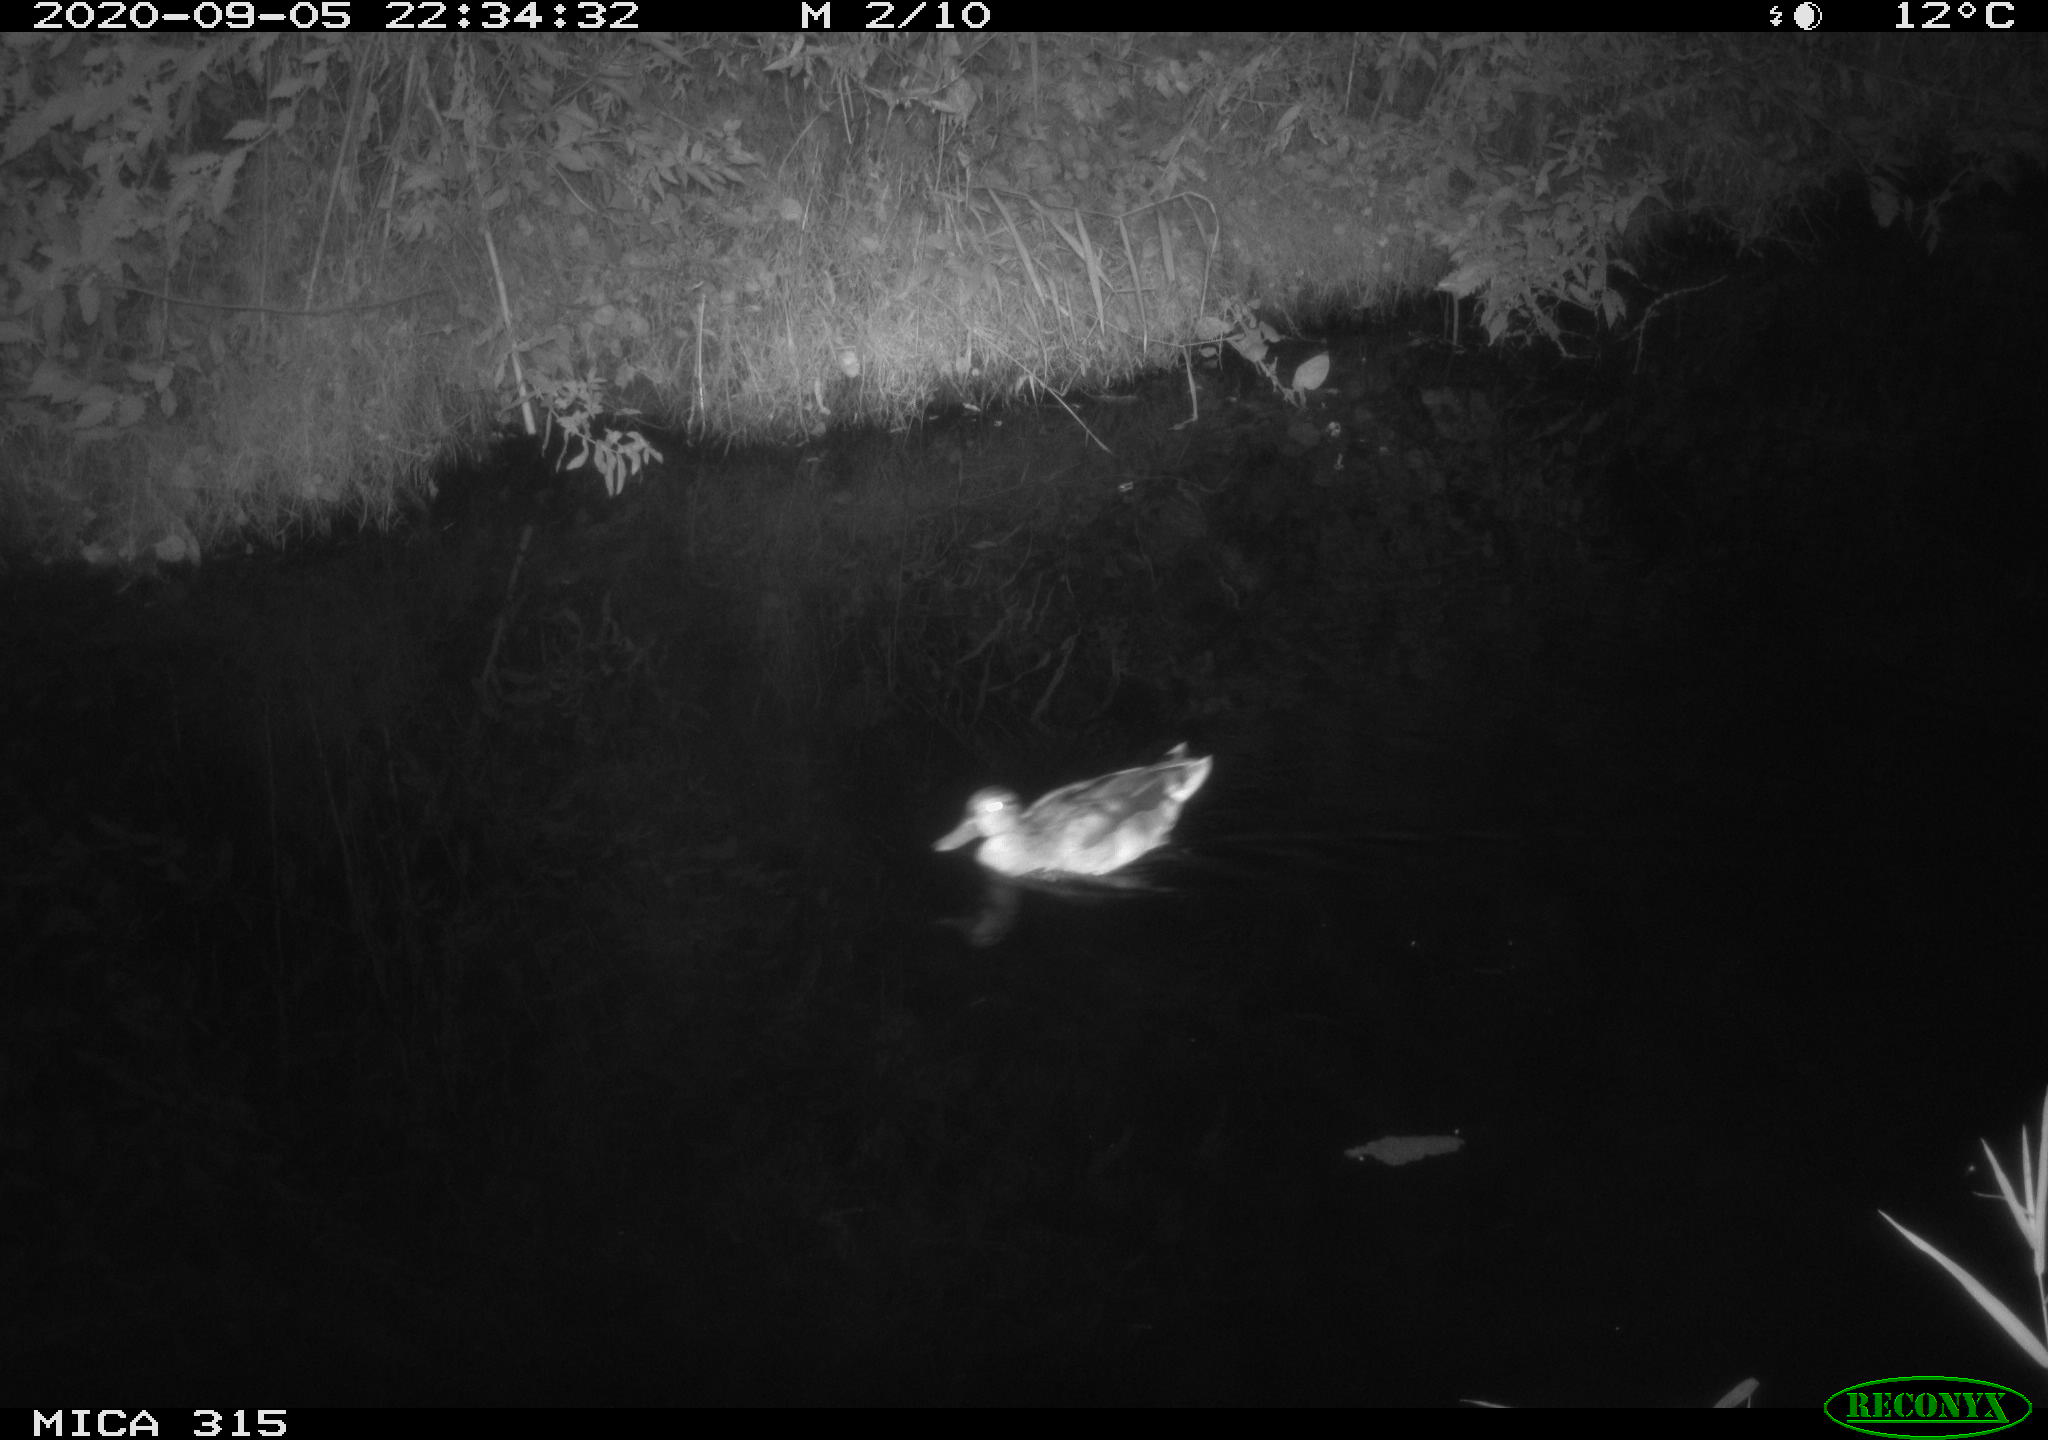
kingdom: Animalia
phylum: Chordata
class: Aves
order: Anseriformes
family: Anatidae
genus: Anas
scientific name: Anas platyrhynchos
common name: Mallard
